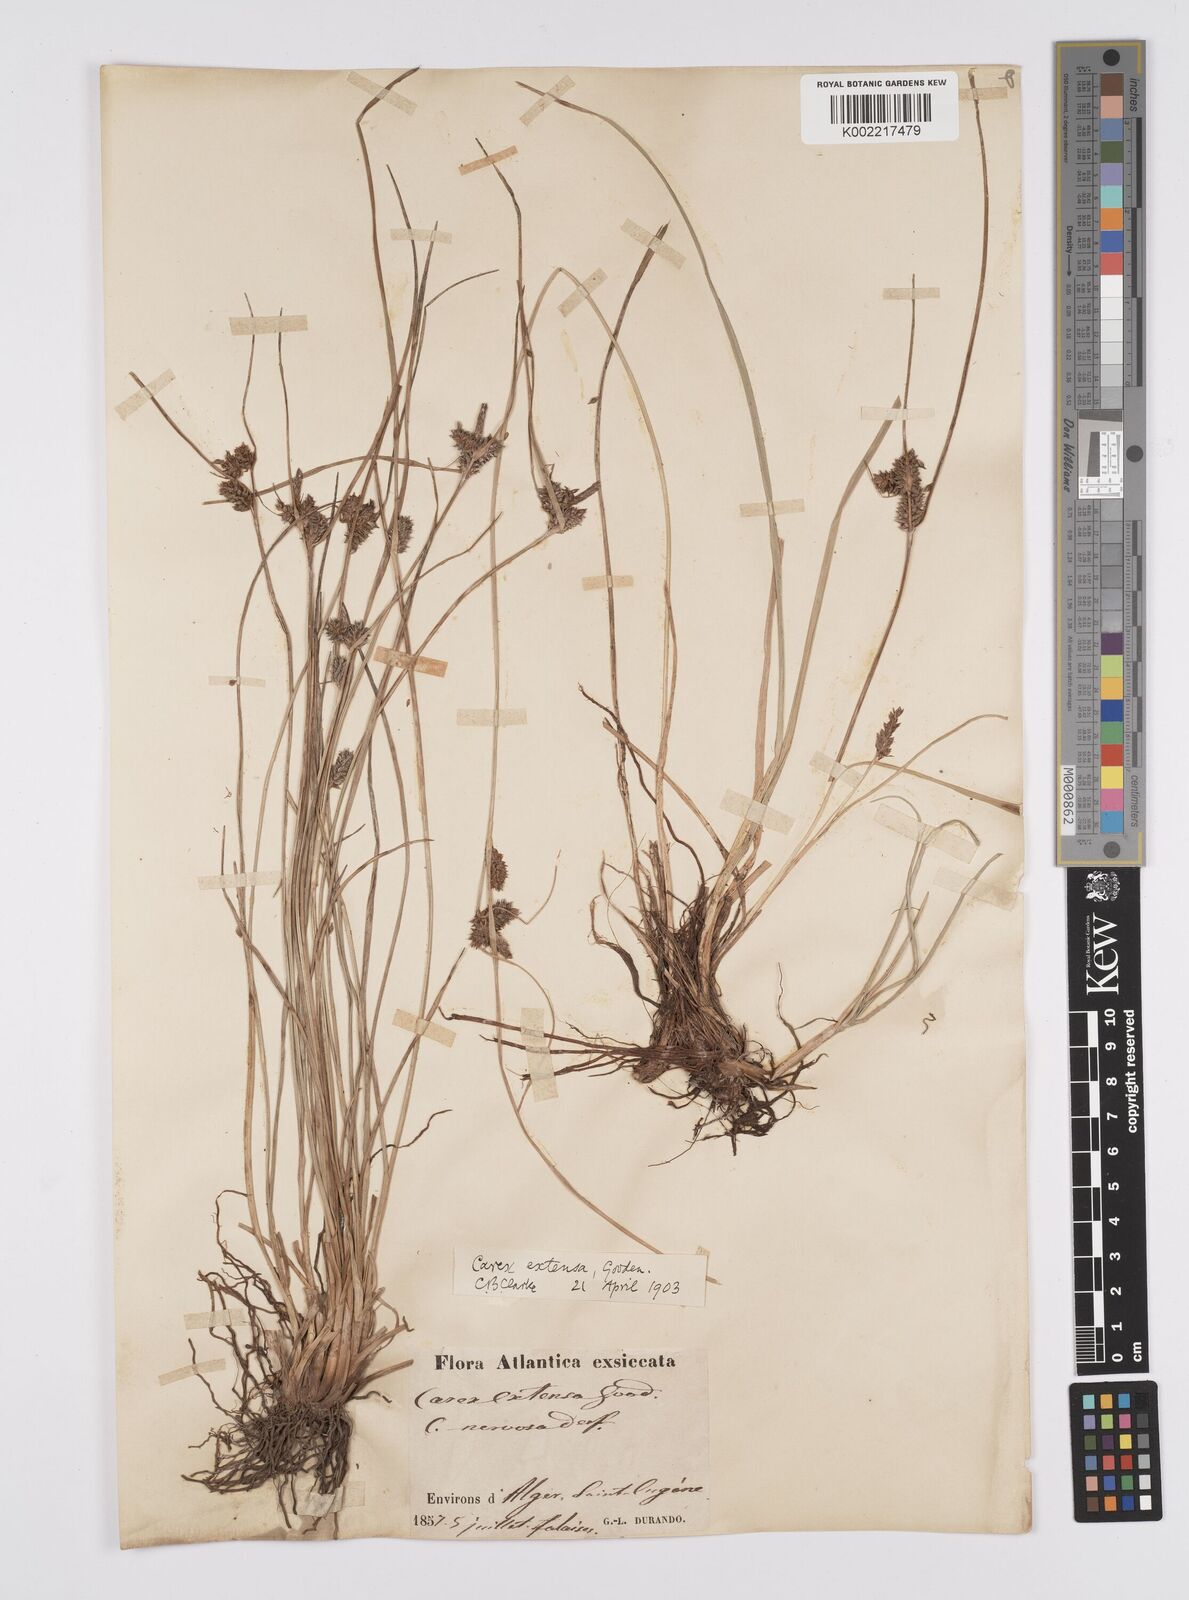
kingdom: Plantae
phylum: Tracheophyta
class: Liliopsida
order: Poales
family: Cyperaceae
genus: Carex
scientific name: Carex extensa
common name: Long-bracted sedge
